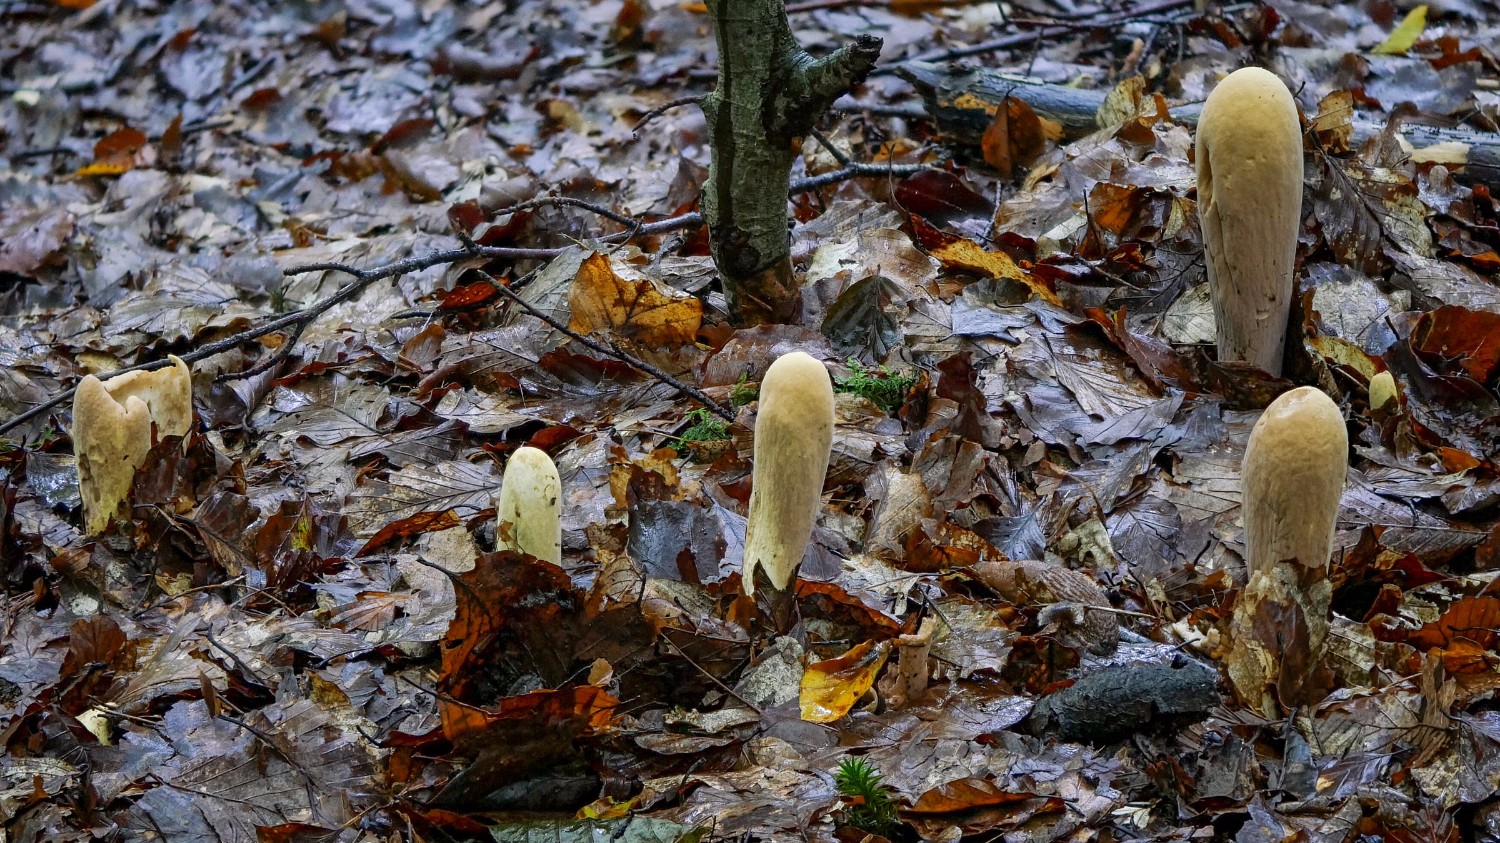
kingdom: Fungi
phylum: Basidiomycota
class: Agaricomycetes
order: Gomphales
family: Clavariadelphaceae
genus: Clavariadelphus
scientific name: Clavariadelphus pistillaris
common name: herkules-kæmpekølle
